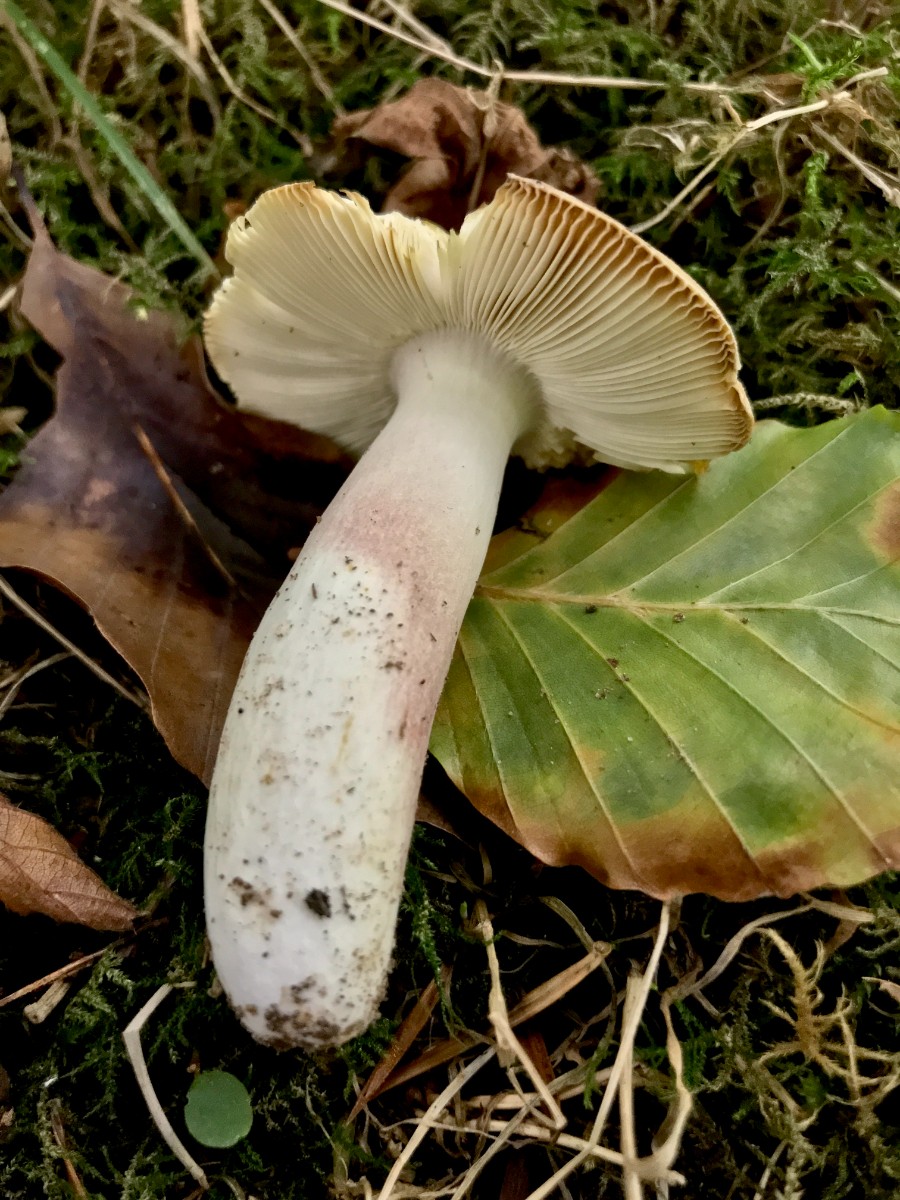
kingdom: Fungi
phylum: Basidiomycota
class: Agaricomycetes
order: Russulales
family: Russulaceae
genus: Russula
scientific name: Russula violeipes
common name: ferskengul skørhat
